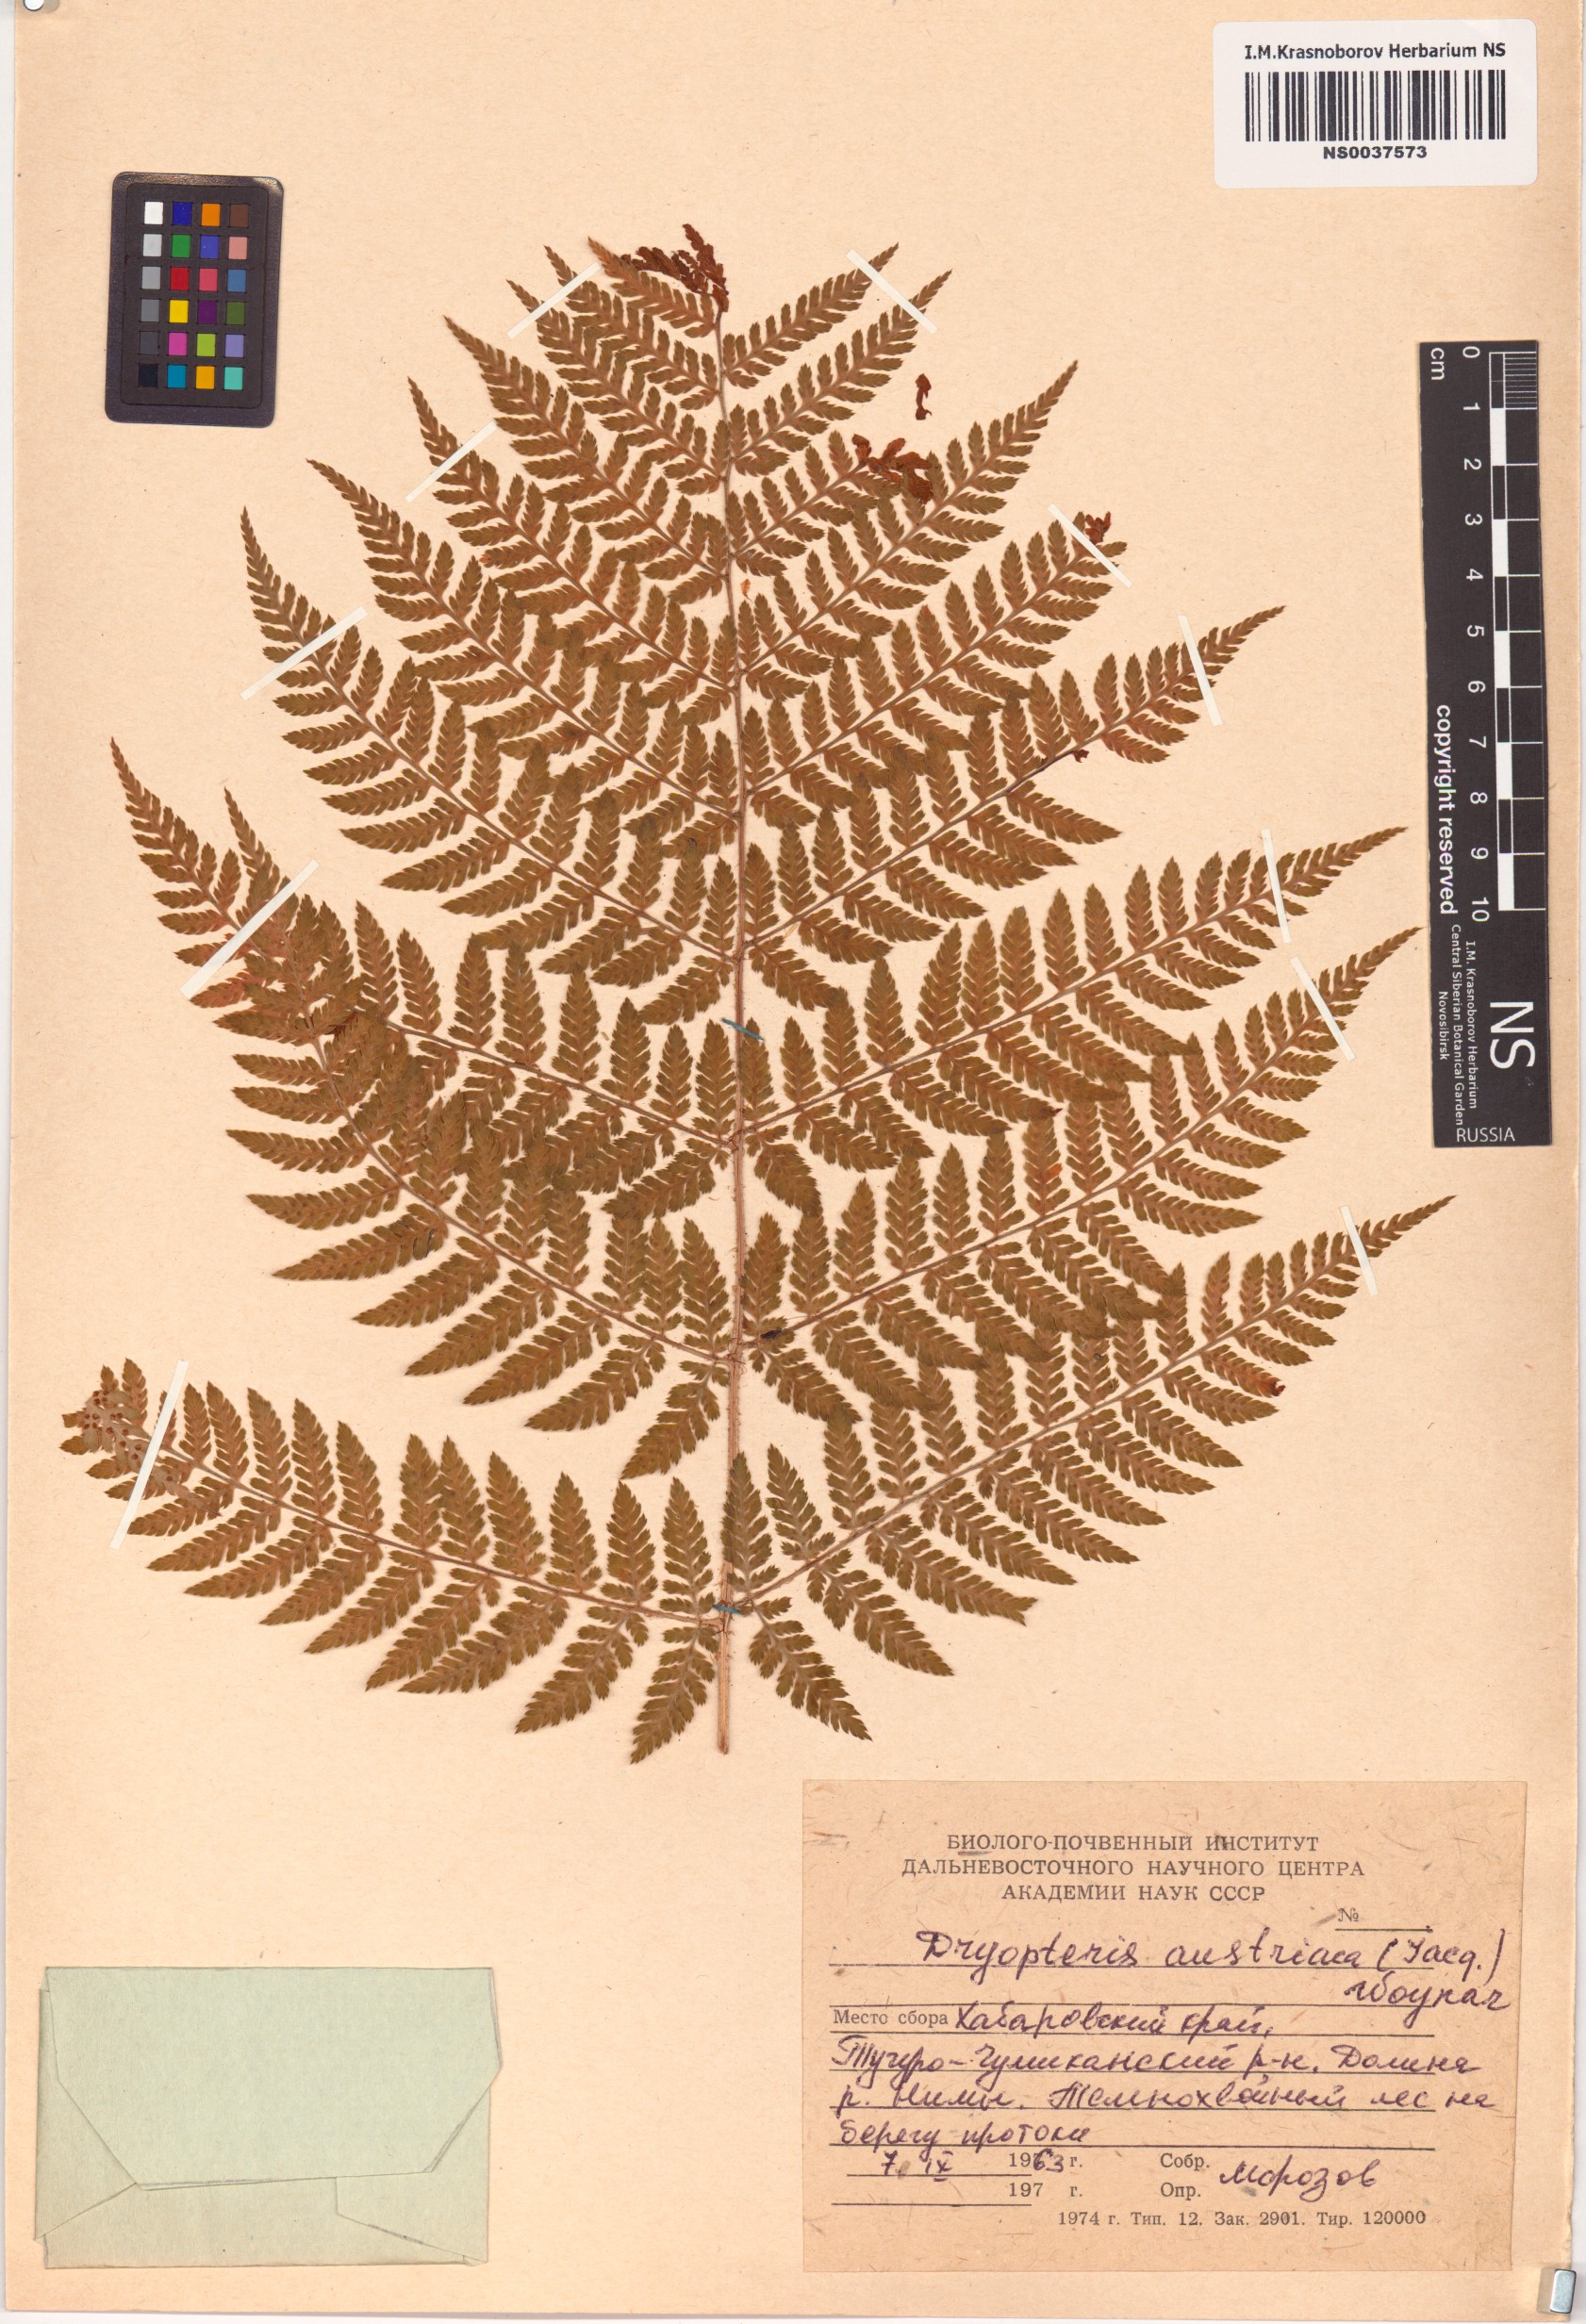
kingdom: Plantae
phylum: Tracheophyta
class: Polypodiopsida
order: Polypodiales
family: Dryopteridaceae
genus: Dryopteris
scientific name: Dryopteris dilatata
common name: Broad buckler-fern
